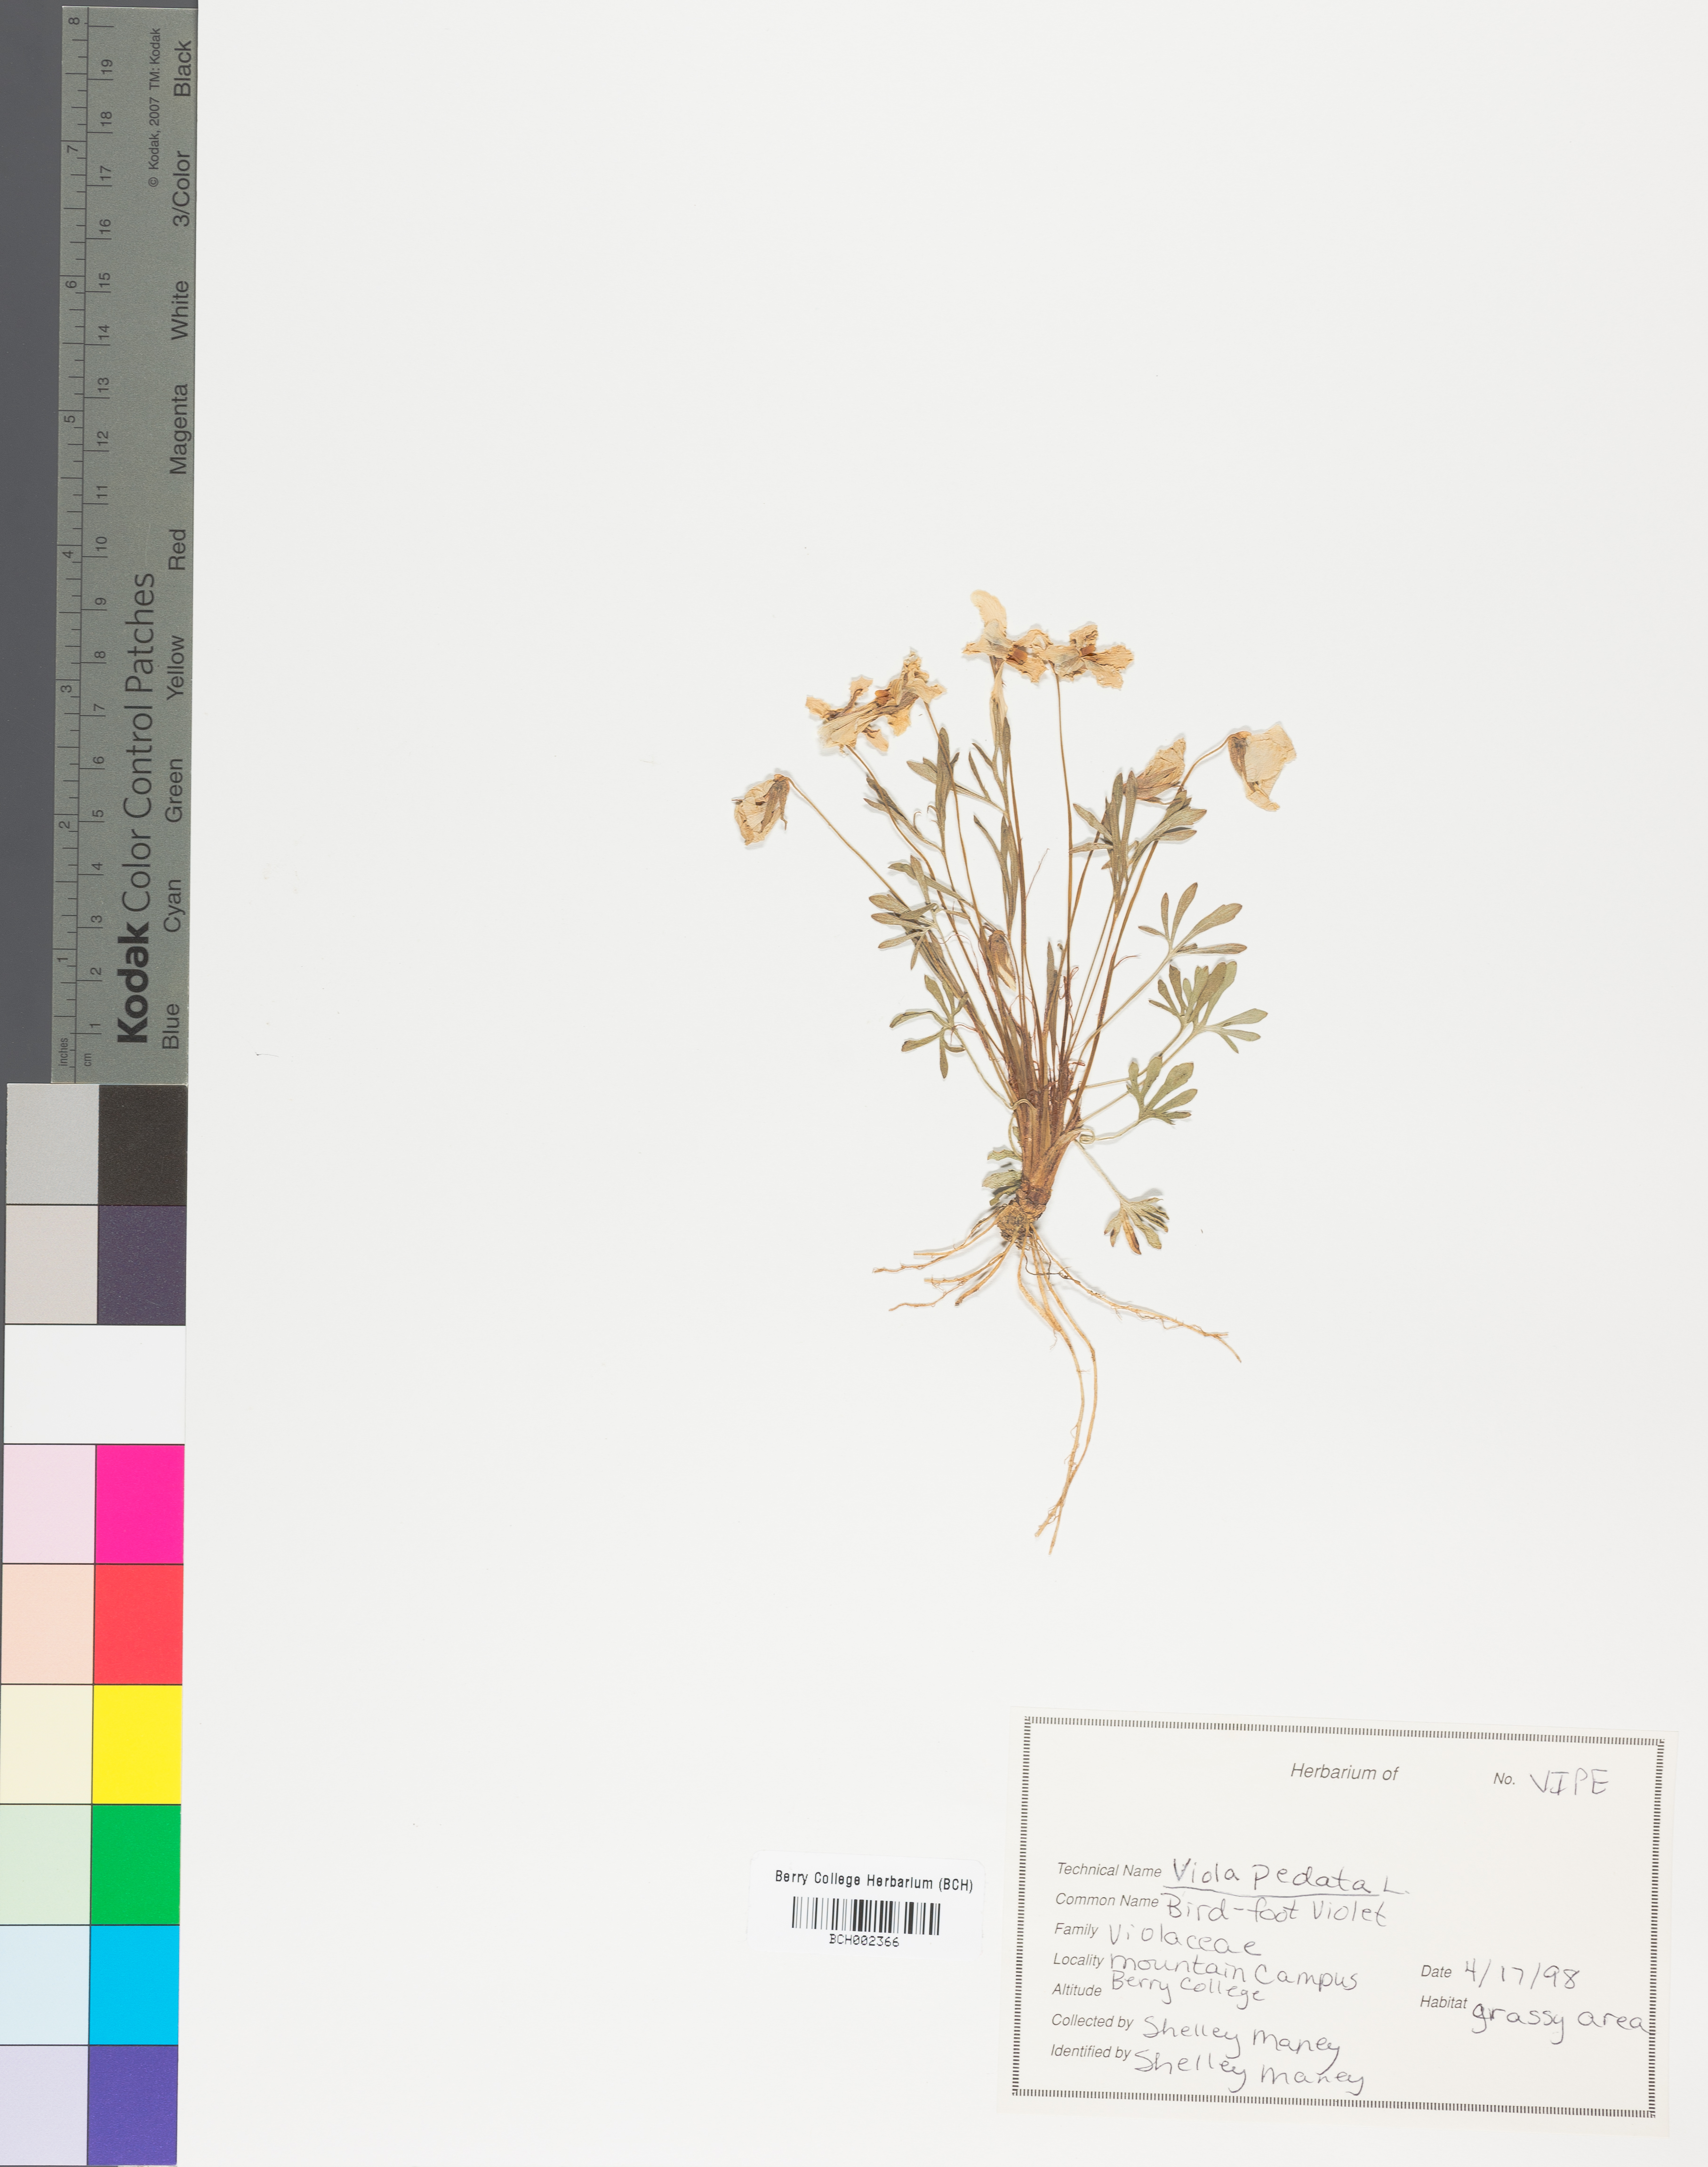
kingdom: Plantae
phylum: Tracheophyta
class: Magnoliopsida
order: Malpighiales
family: Violaceae
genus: Viola
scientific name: Viola pedata
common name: Pansy violet
